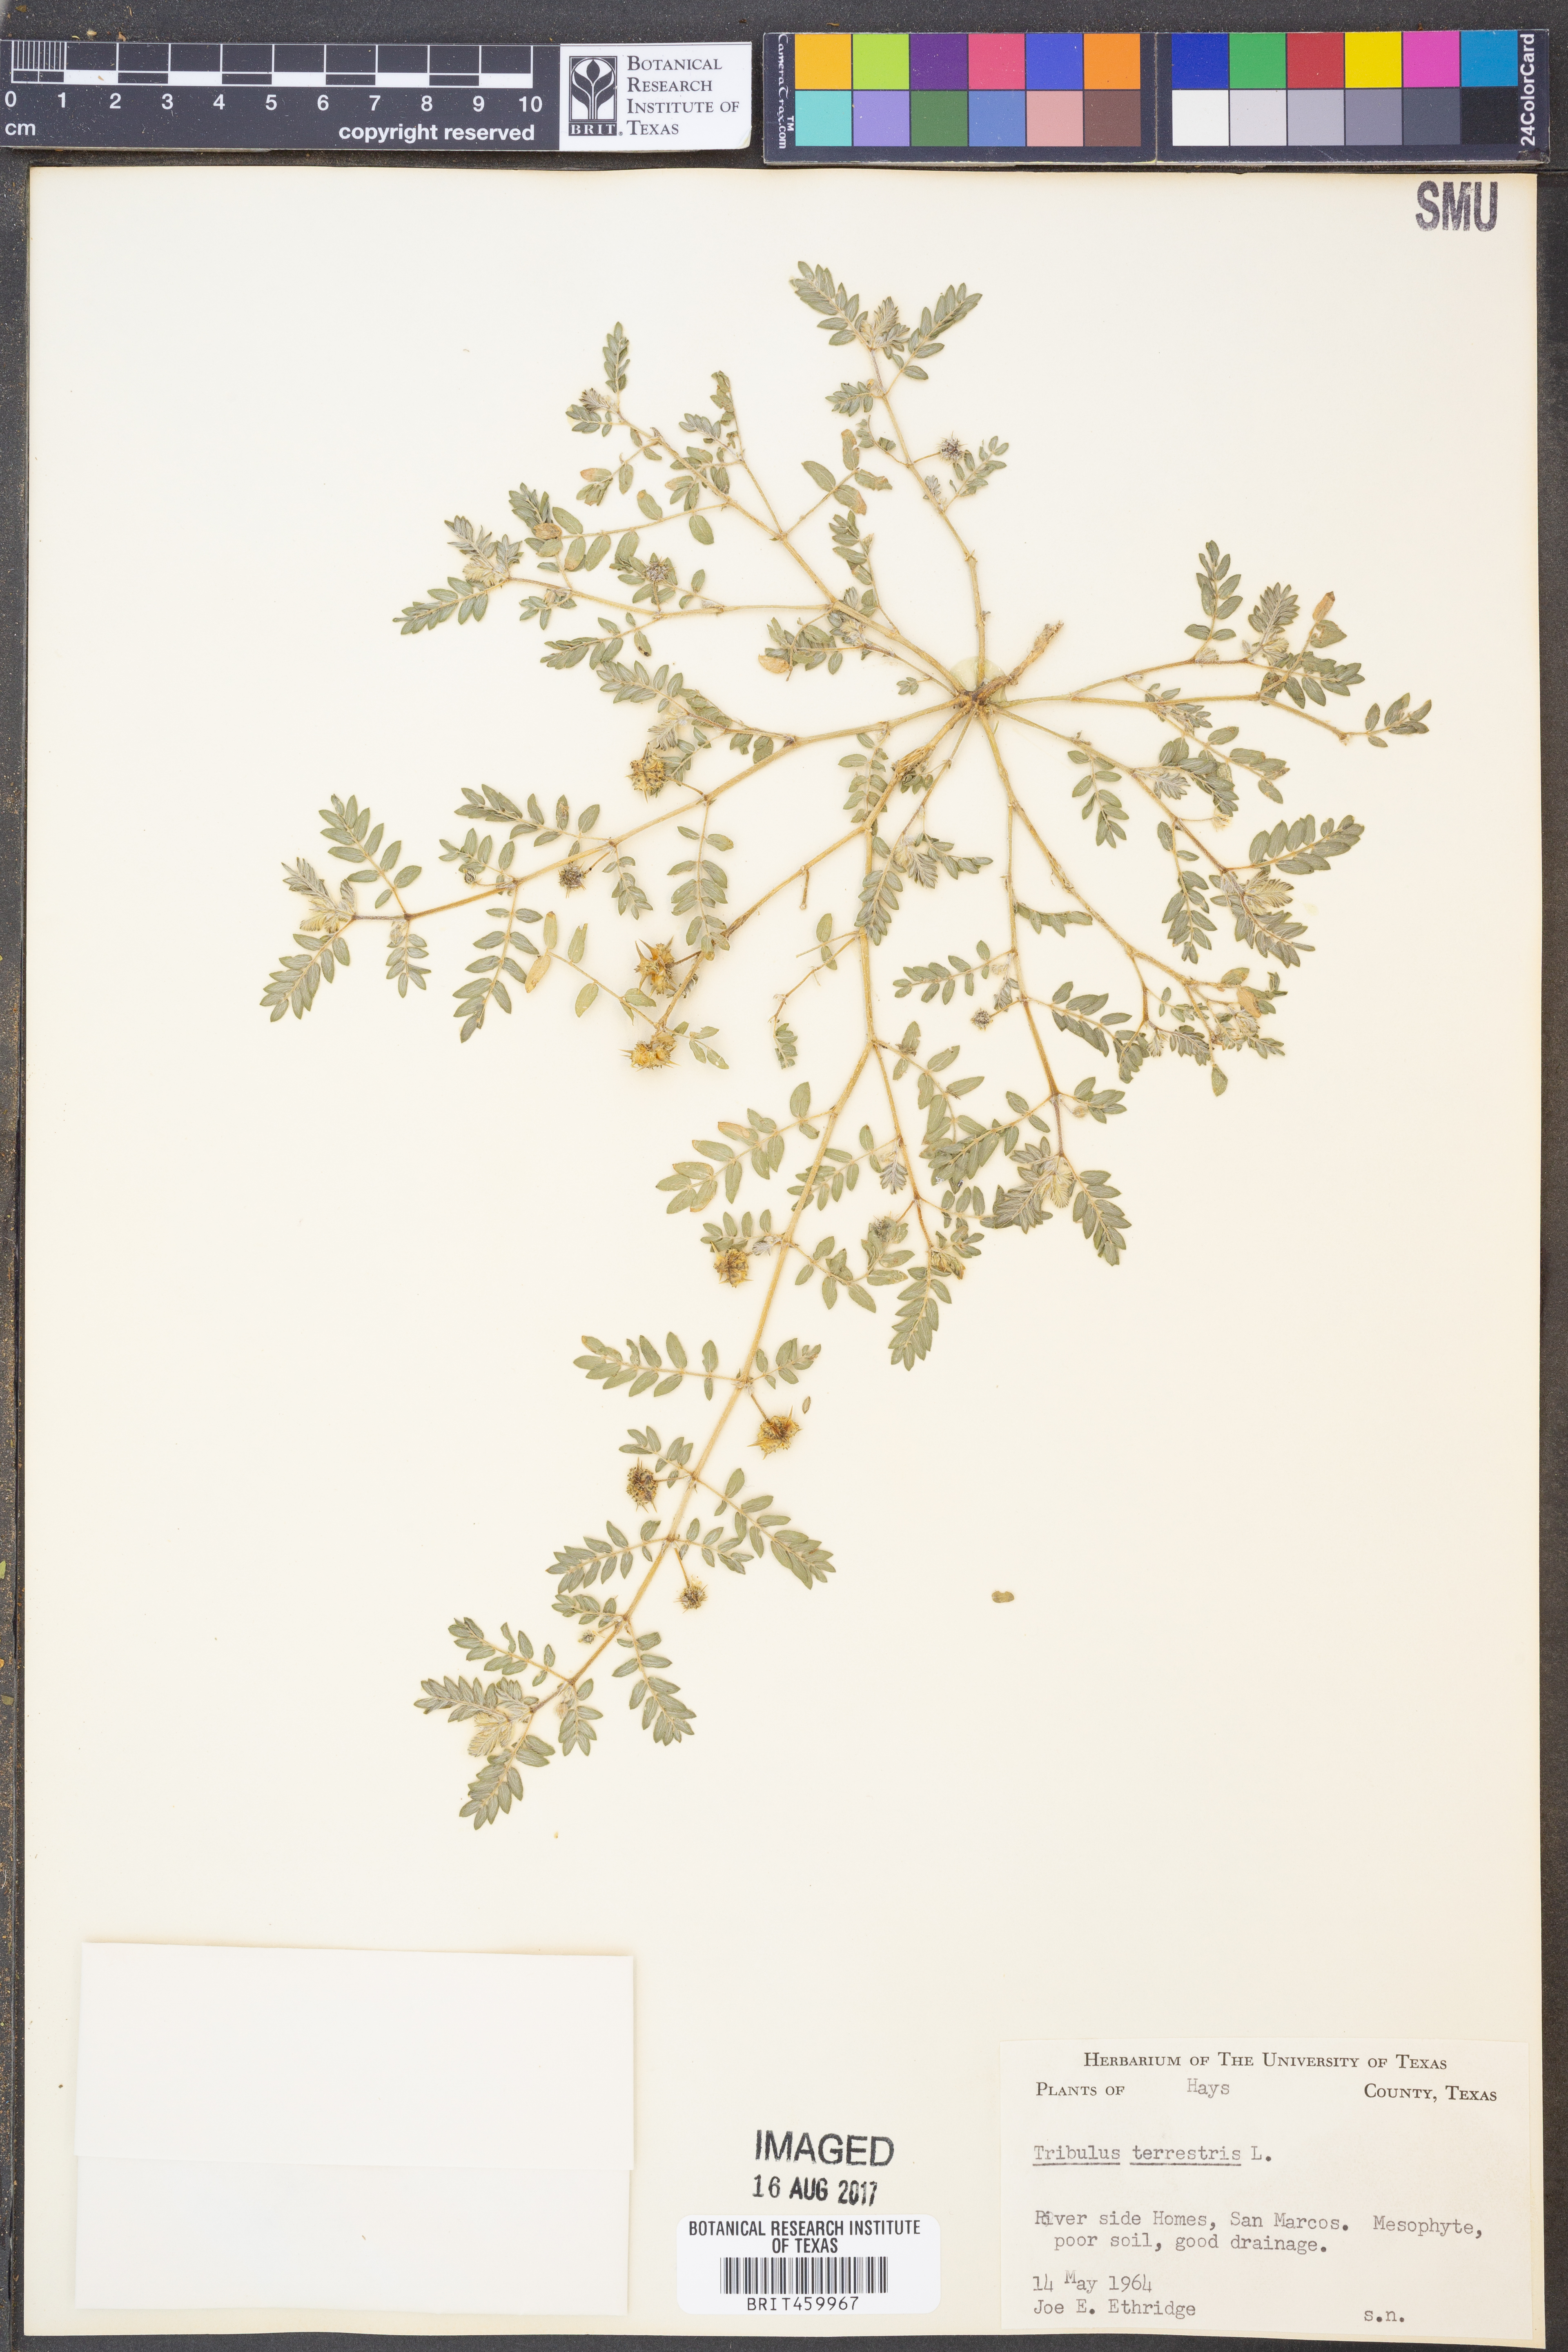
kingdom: Plantae
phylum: Tracheophyta
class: Magnoliopsida
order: Zygophyllales
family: Zygophyllaceae
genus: Tribulus
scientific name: Tribulus terrestris
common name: Puncturevine
